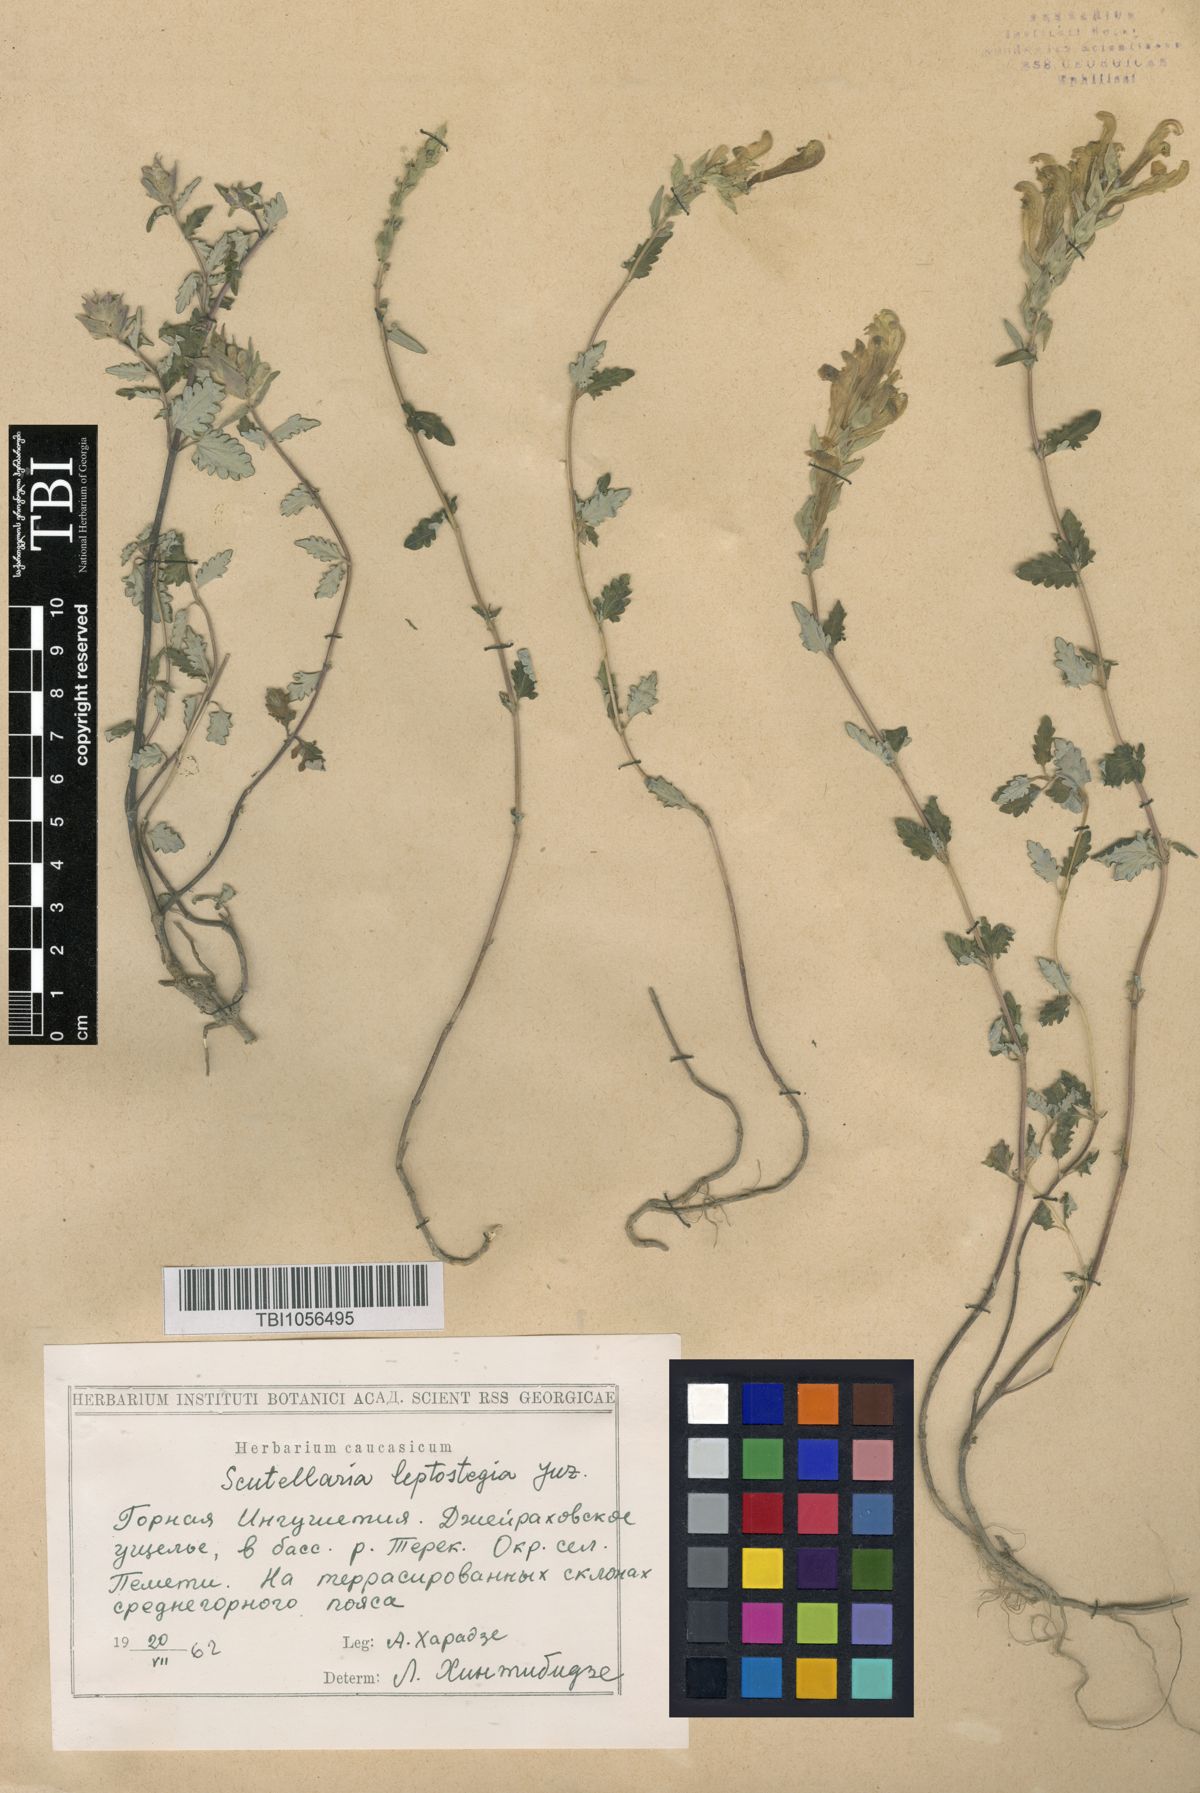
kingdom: Plantae
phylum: Tracheophyta
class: Magnoliopsida
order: Lamiales
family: Lamiaceae
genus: Scutellaria
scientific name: Scutellaria leptostegia
